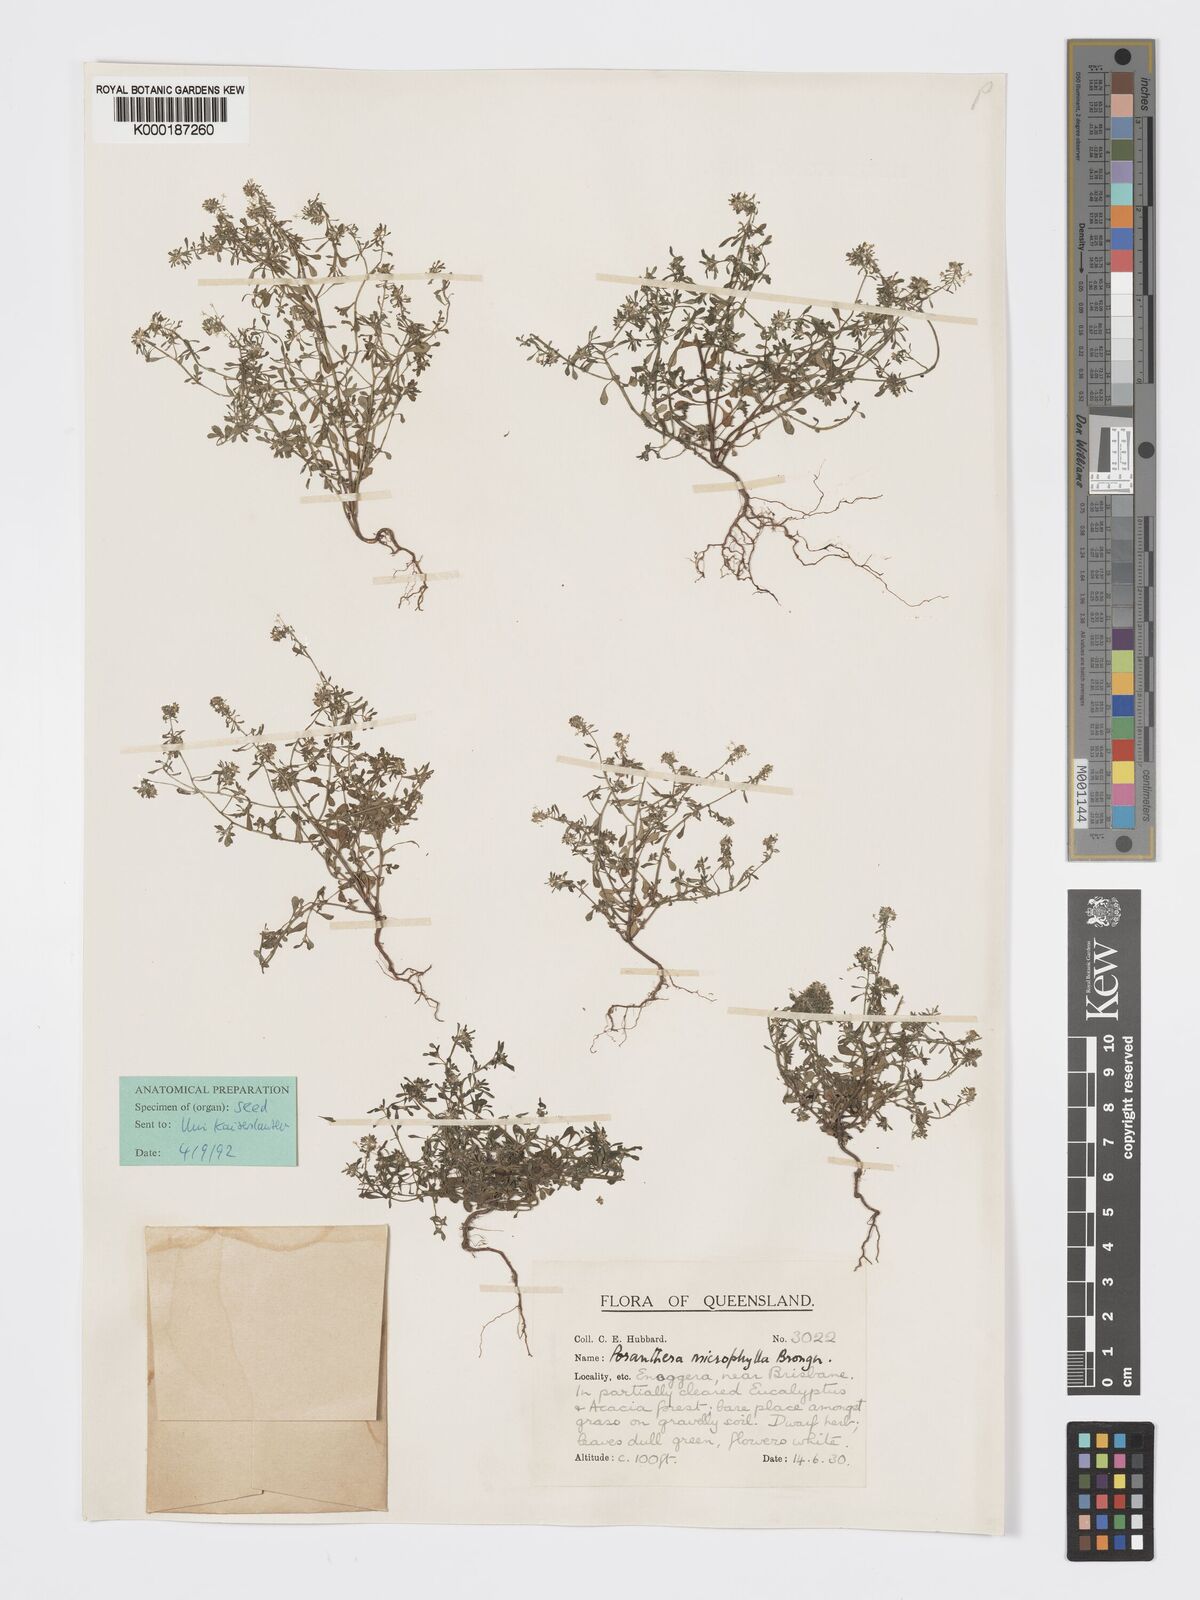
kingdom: Plantae
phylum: Tracheophyta
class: Magnoliopsida
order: Malpighiales
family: Phyllanthaceae
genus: Poranthera
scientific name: Poranthera microphylla
